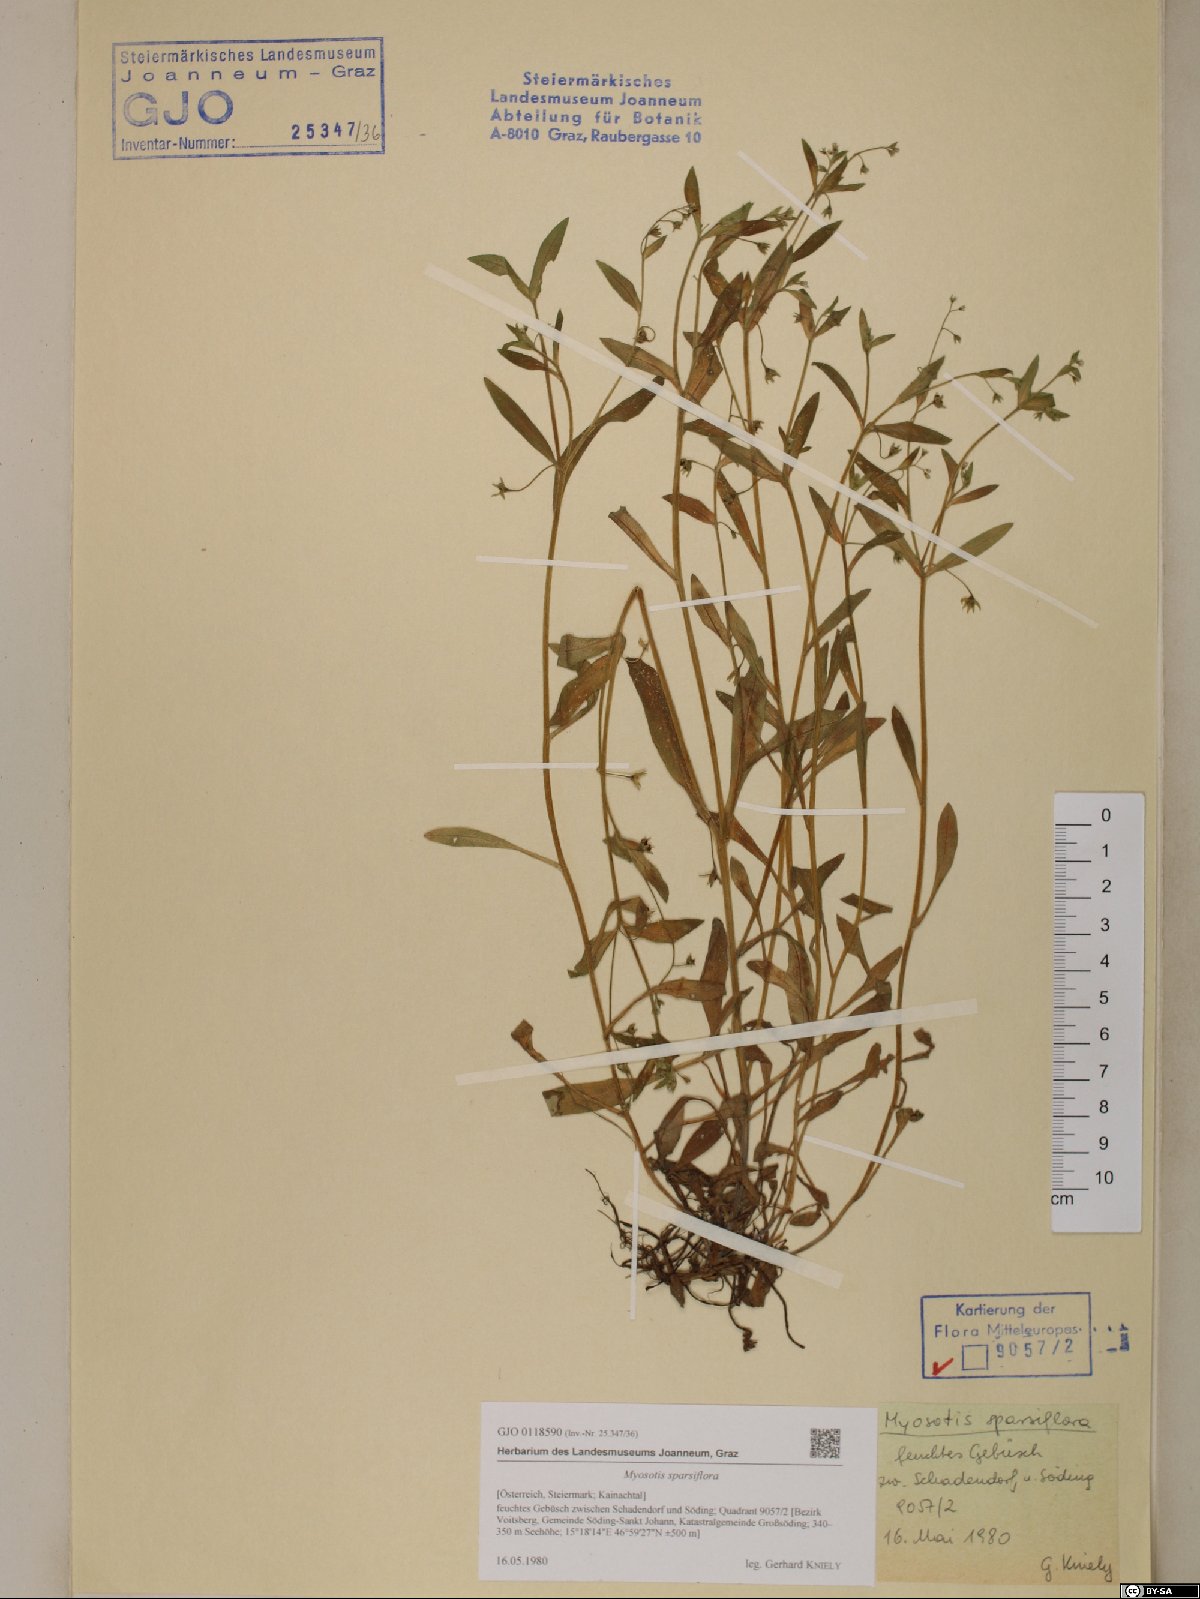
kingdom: Plantae
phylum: Tracheophyta
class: Magnoliopsida
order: Boraginales
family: Boraginaceae
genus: Myosotis
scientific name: Myosotis sparsiflora
